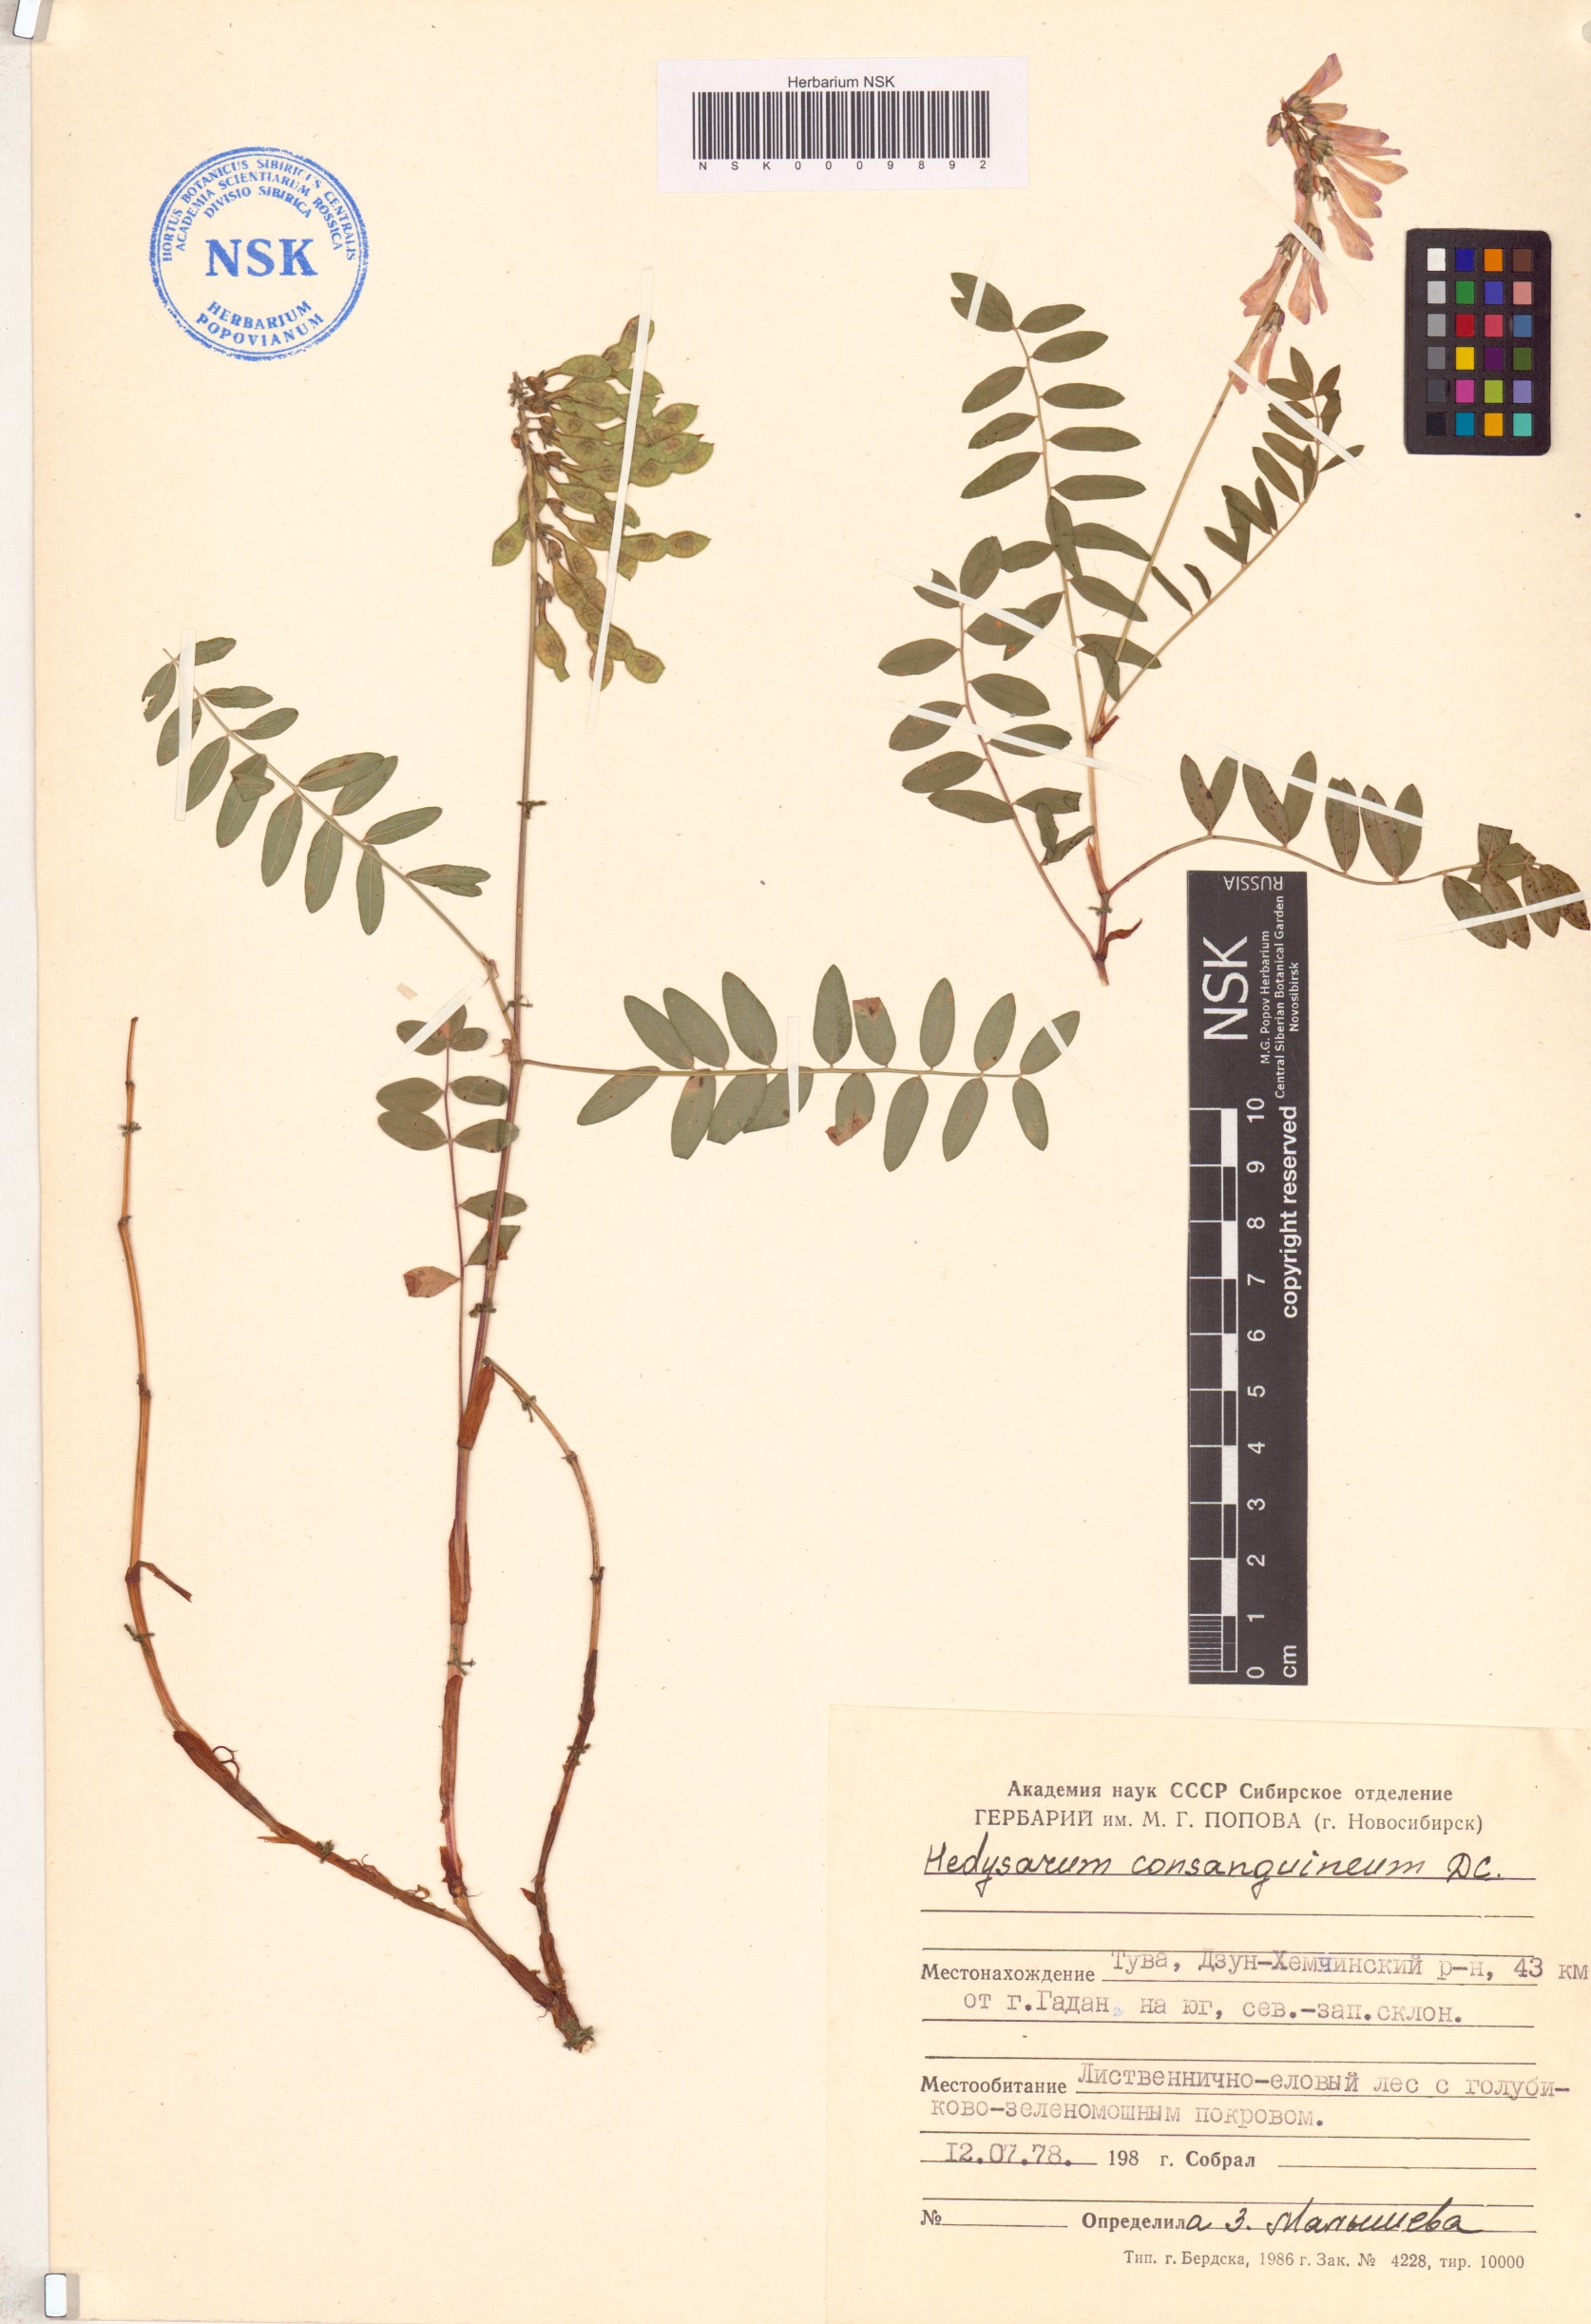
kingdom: Plantae
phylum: Tracheophyta
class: Magnoliopsida
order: Fabales
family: Fabaceae
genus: Hedysarum
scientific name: Hedysarum consanguineum
